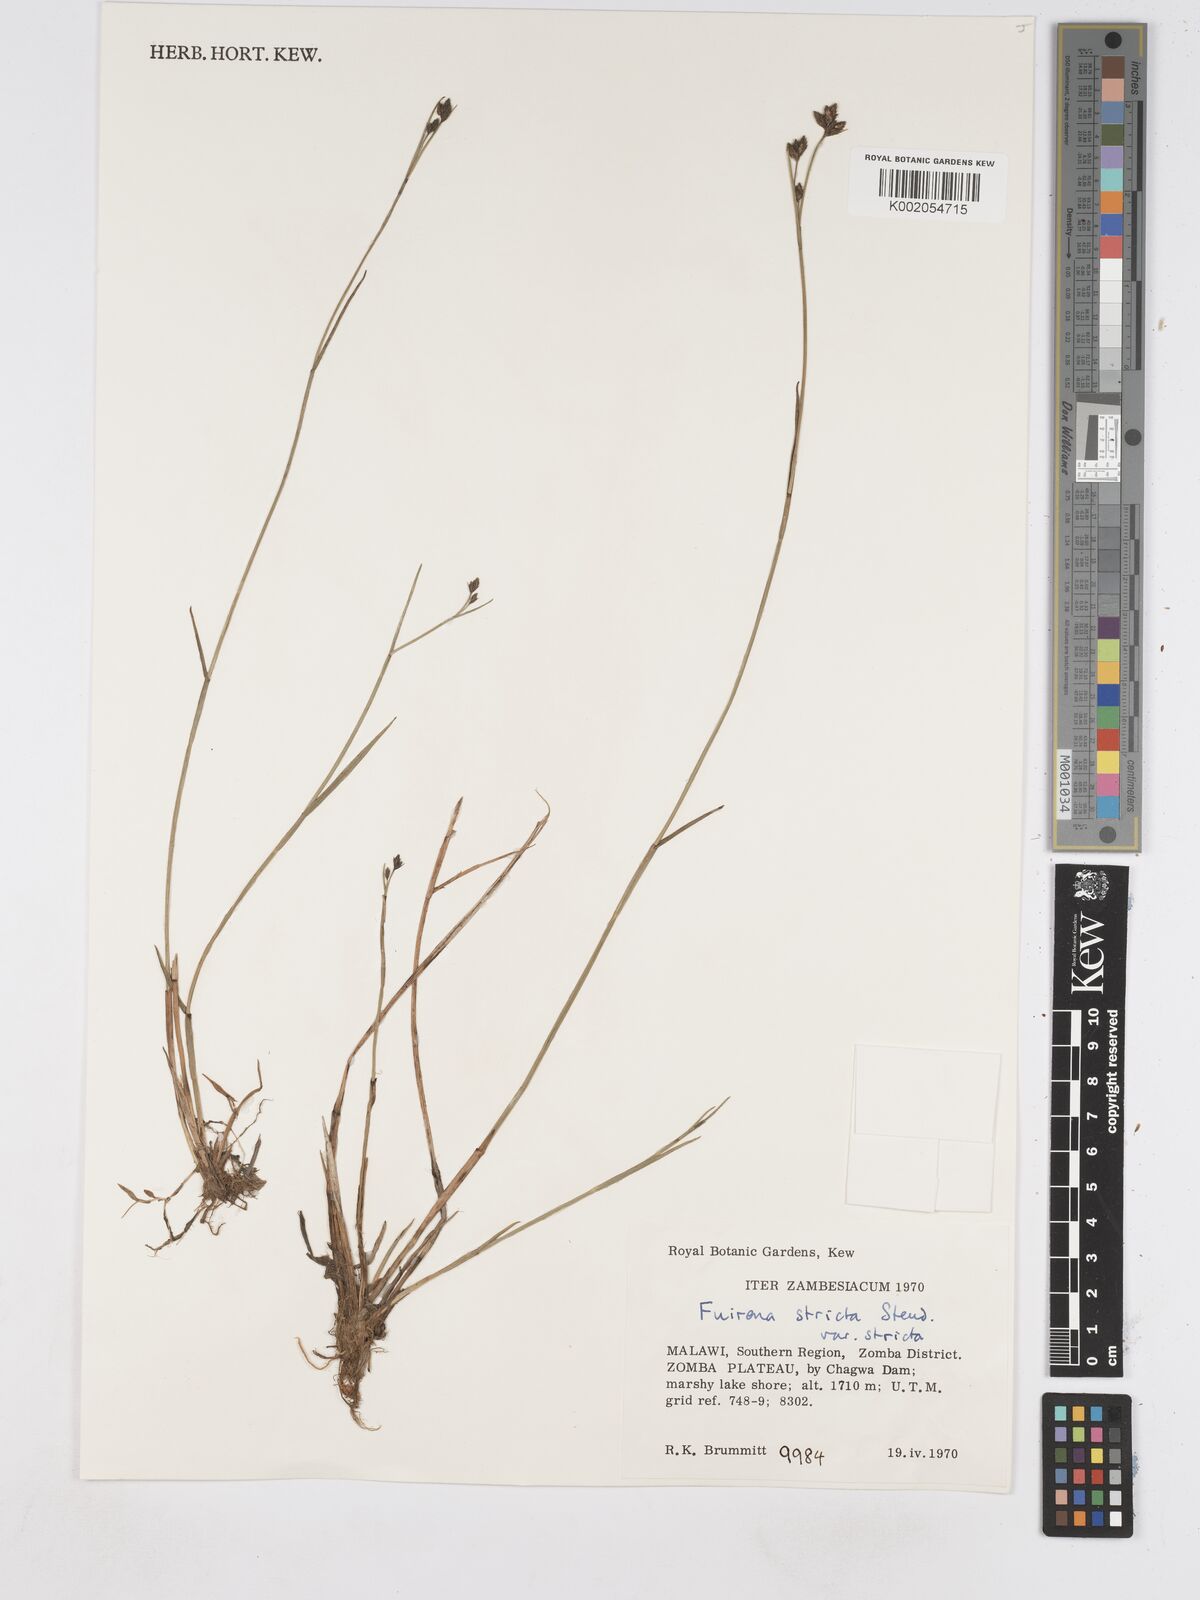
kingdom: Plantae
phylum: Tracheophyta
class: Liliopsida
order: Poales
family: Cyperaceae
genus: Fuirena
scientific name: Fuirena stricta
